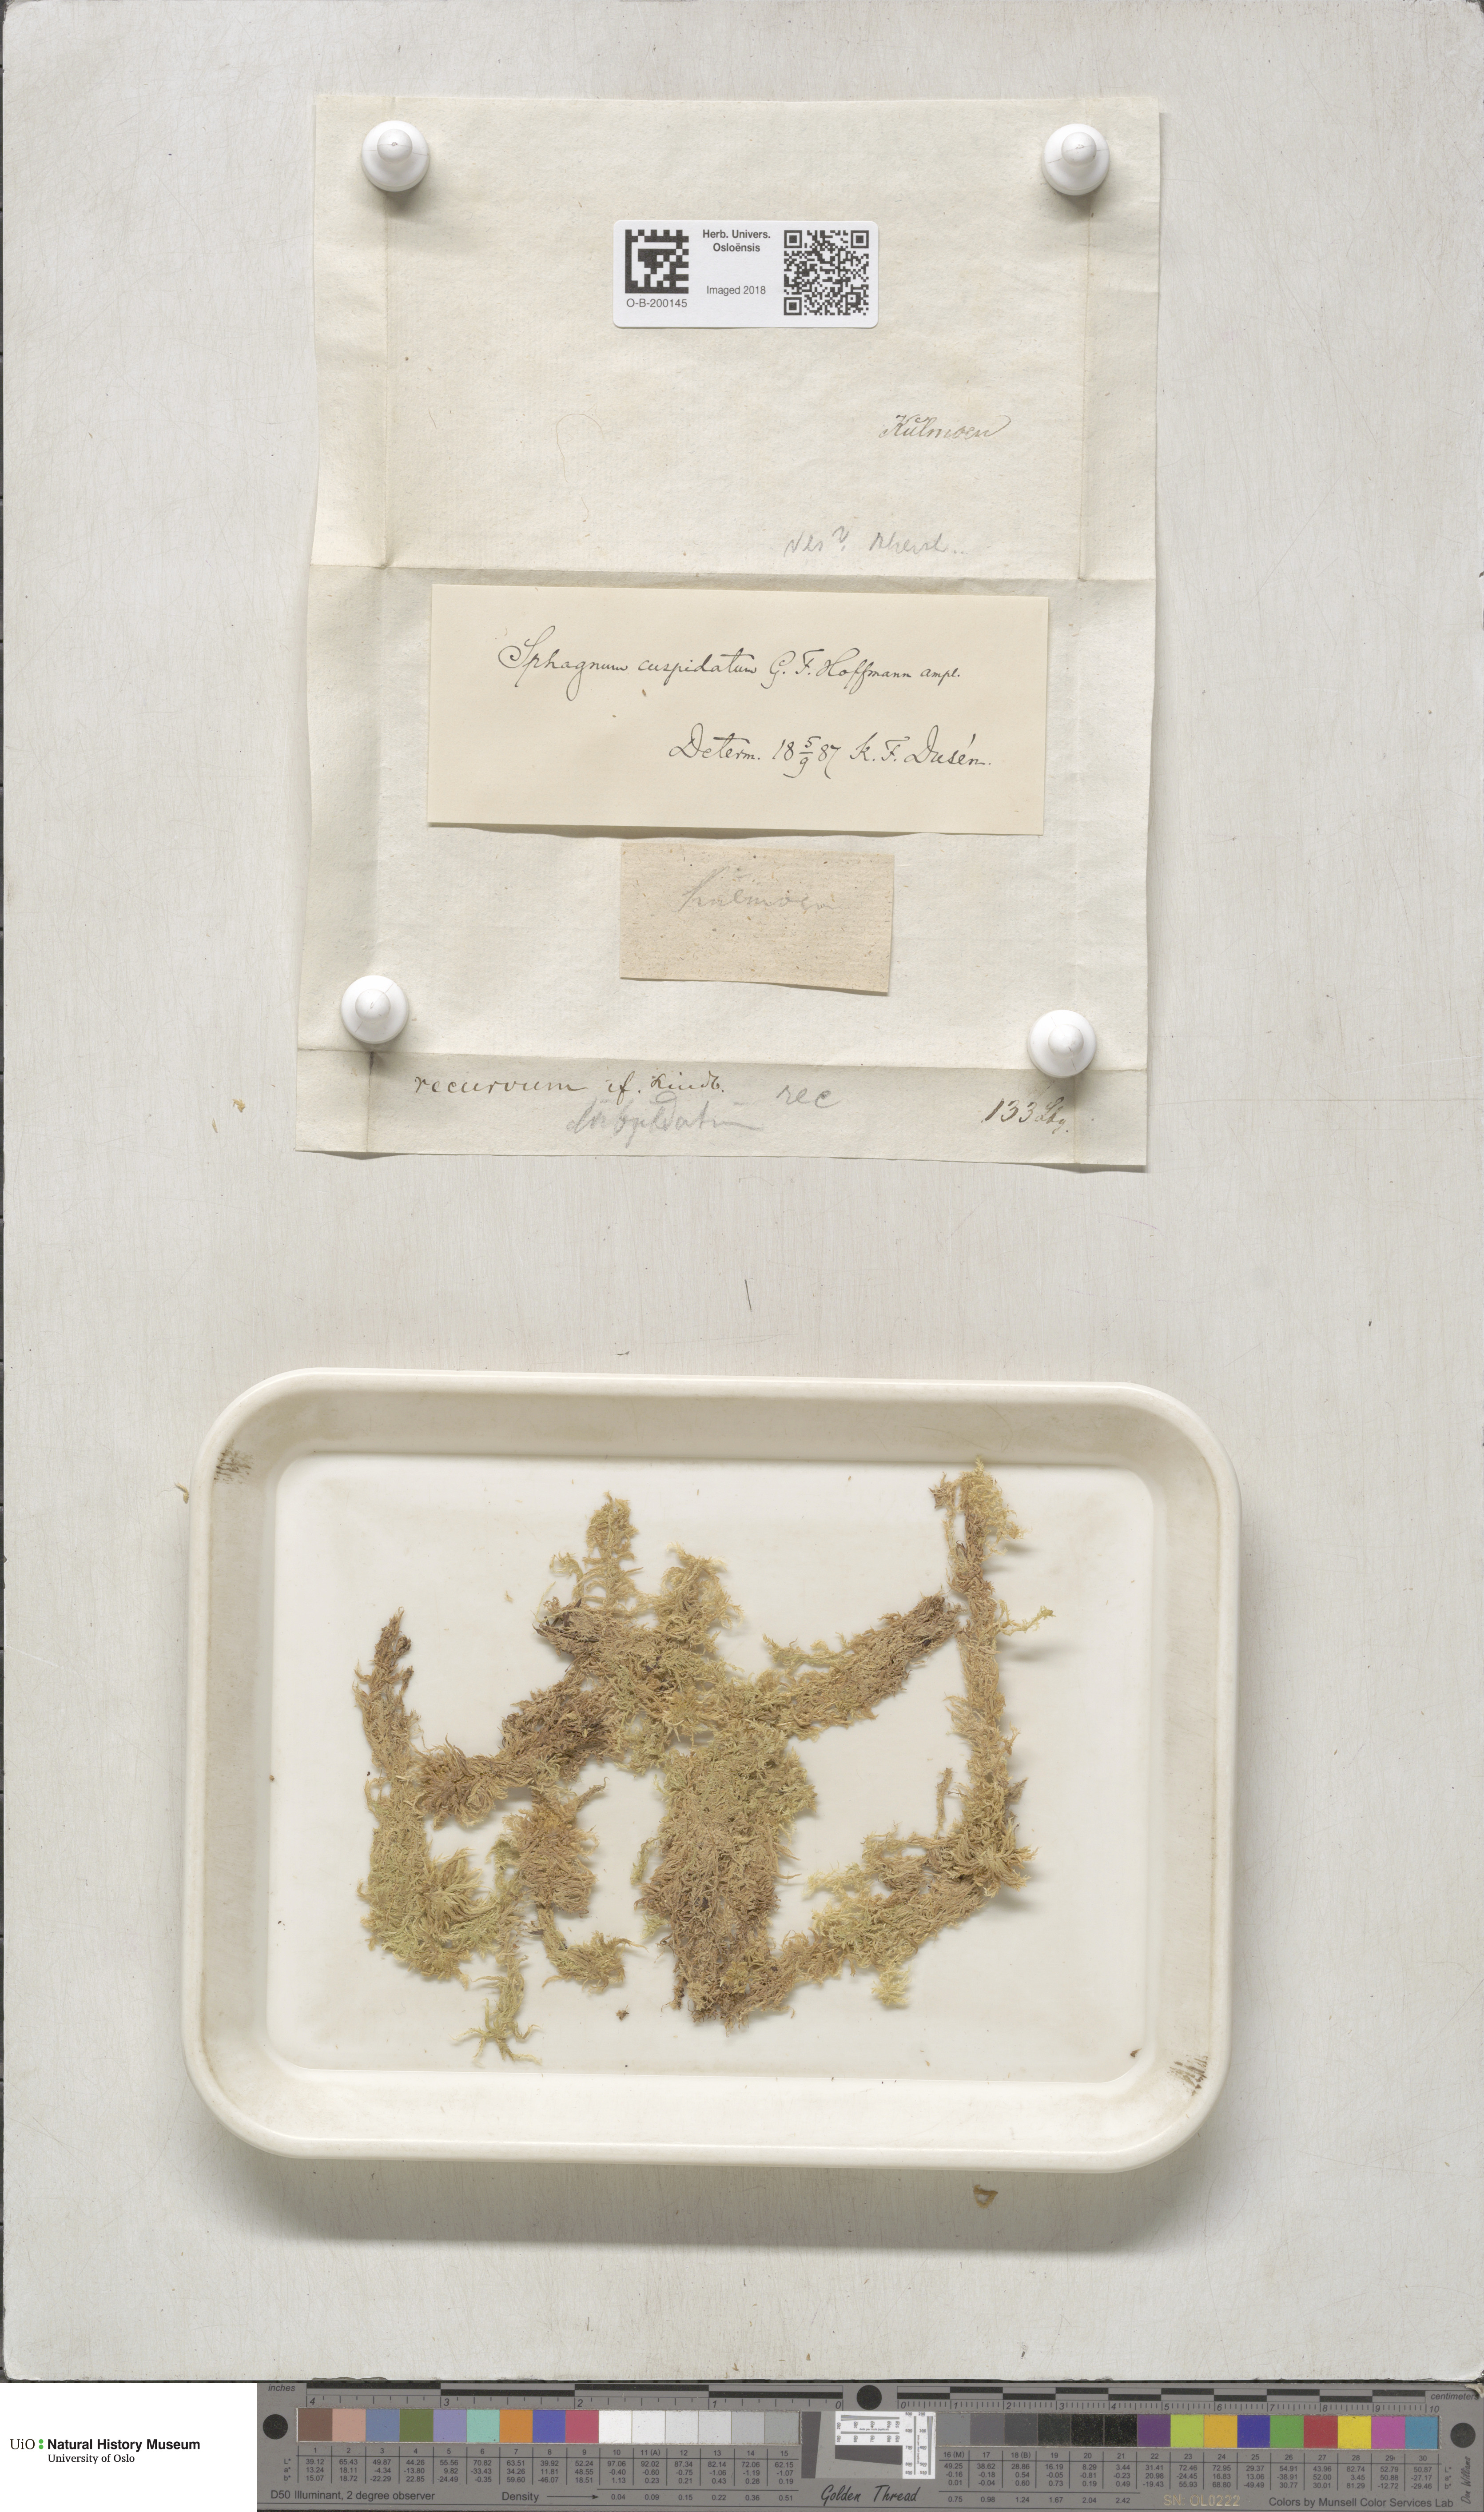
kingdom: Plantae
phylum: Bryophyta
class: Sphagnopsida
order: Sphagnales
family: Sphagnaceae
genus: Sphagnum
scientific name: Sphagnum cuspidatum
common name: Feathery peat moss
